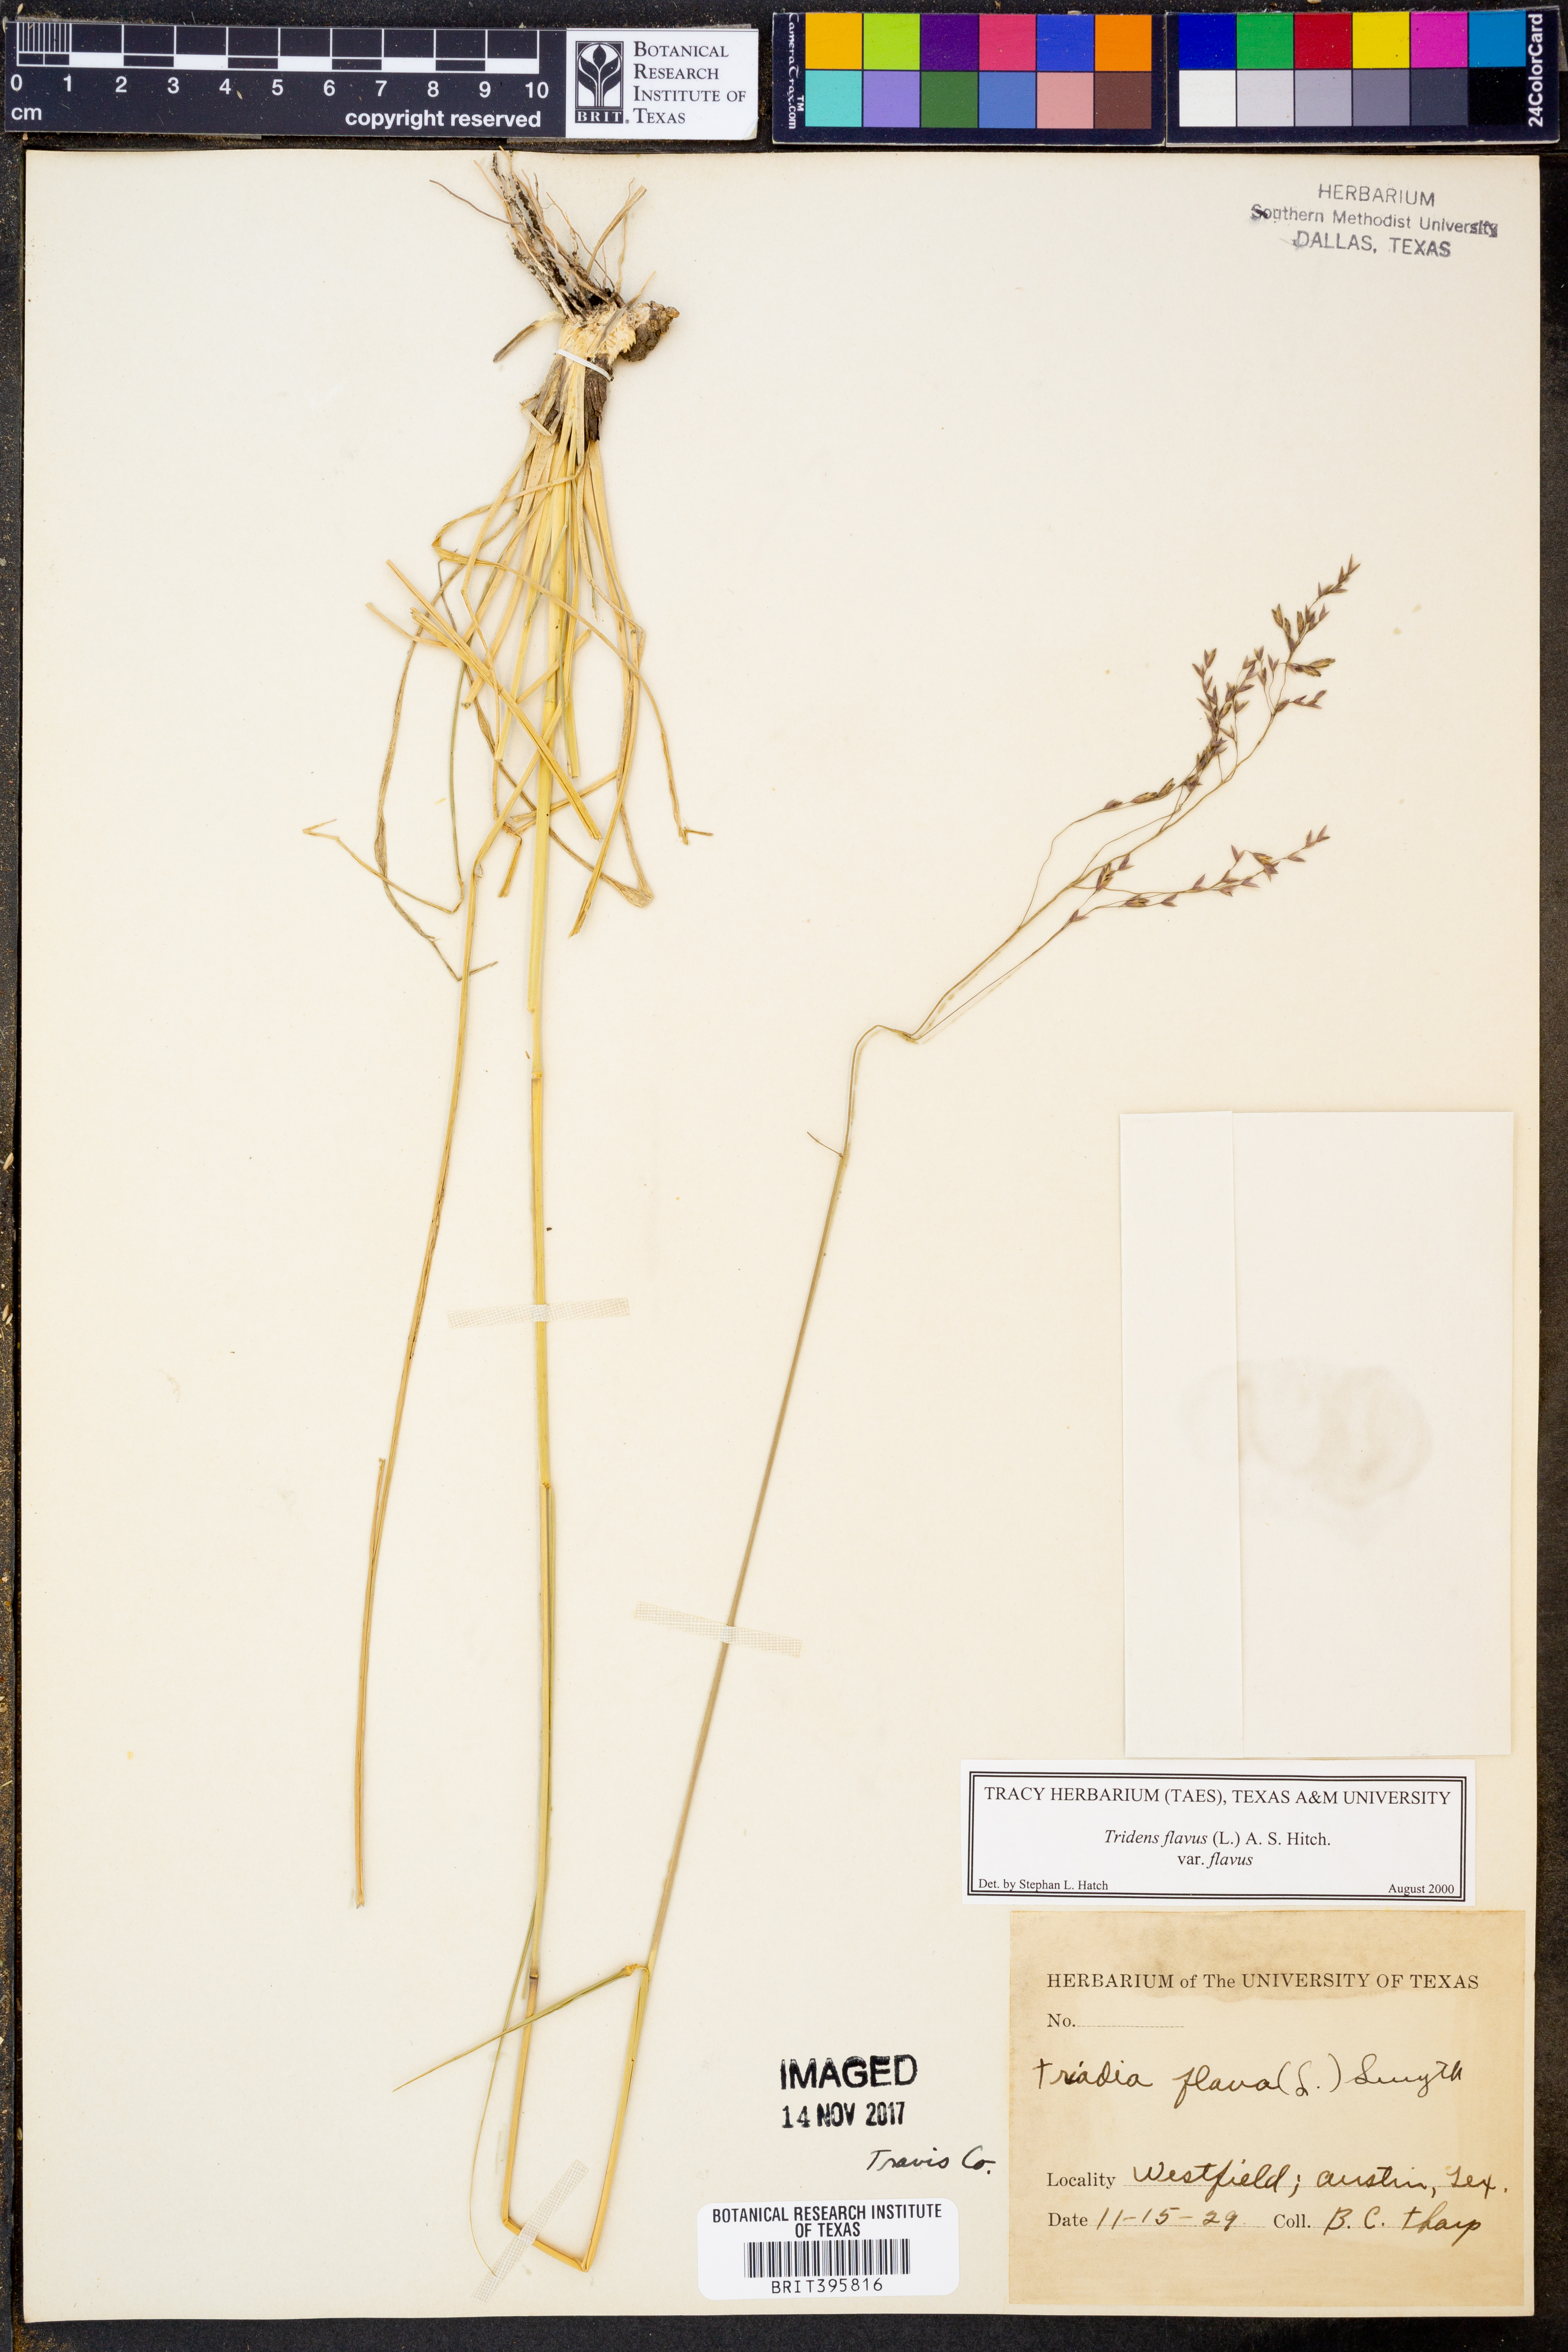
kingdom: Plantae
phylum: Tracheophyta
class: Liliopsida
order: Poales
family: Poaceae
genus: Tridens
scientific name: Tridens flavus
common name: Purpletop
